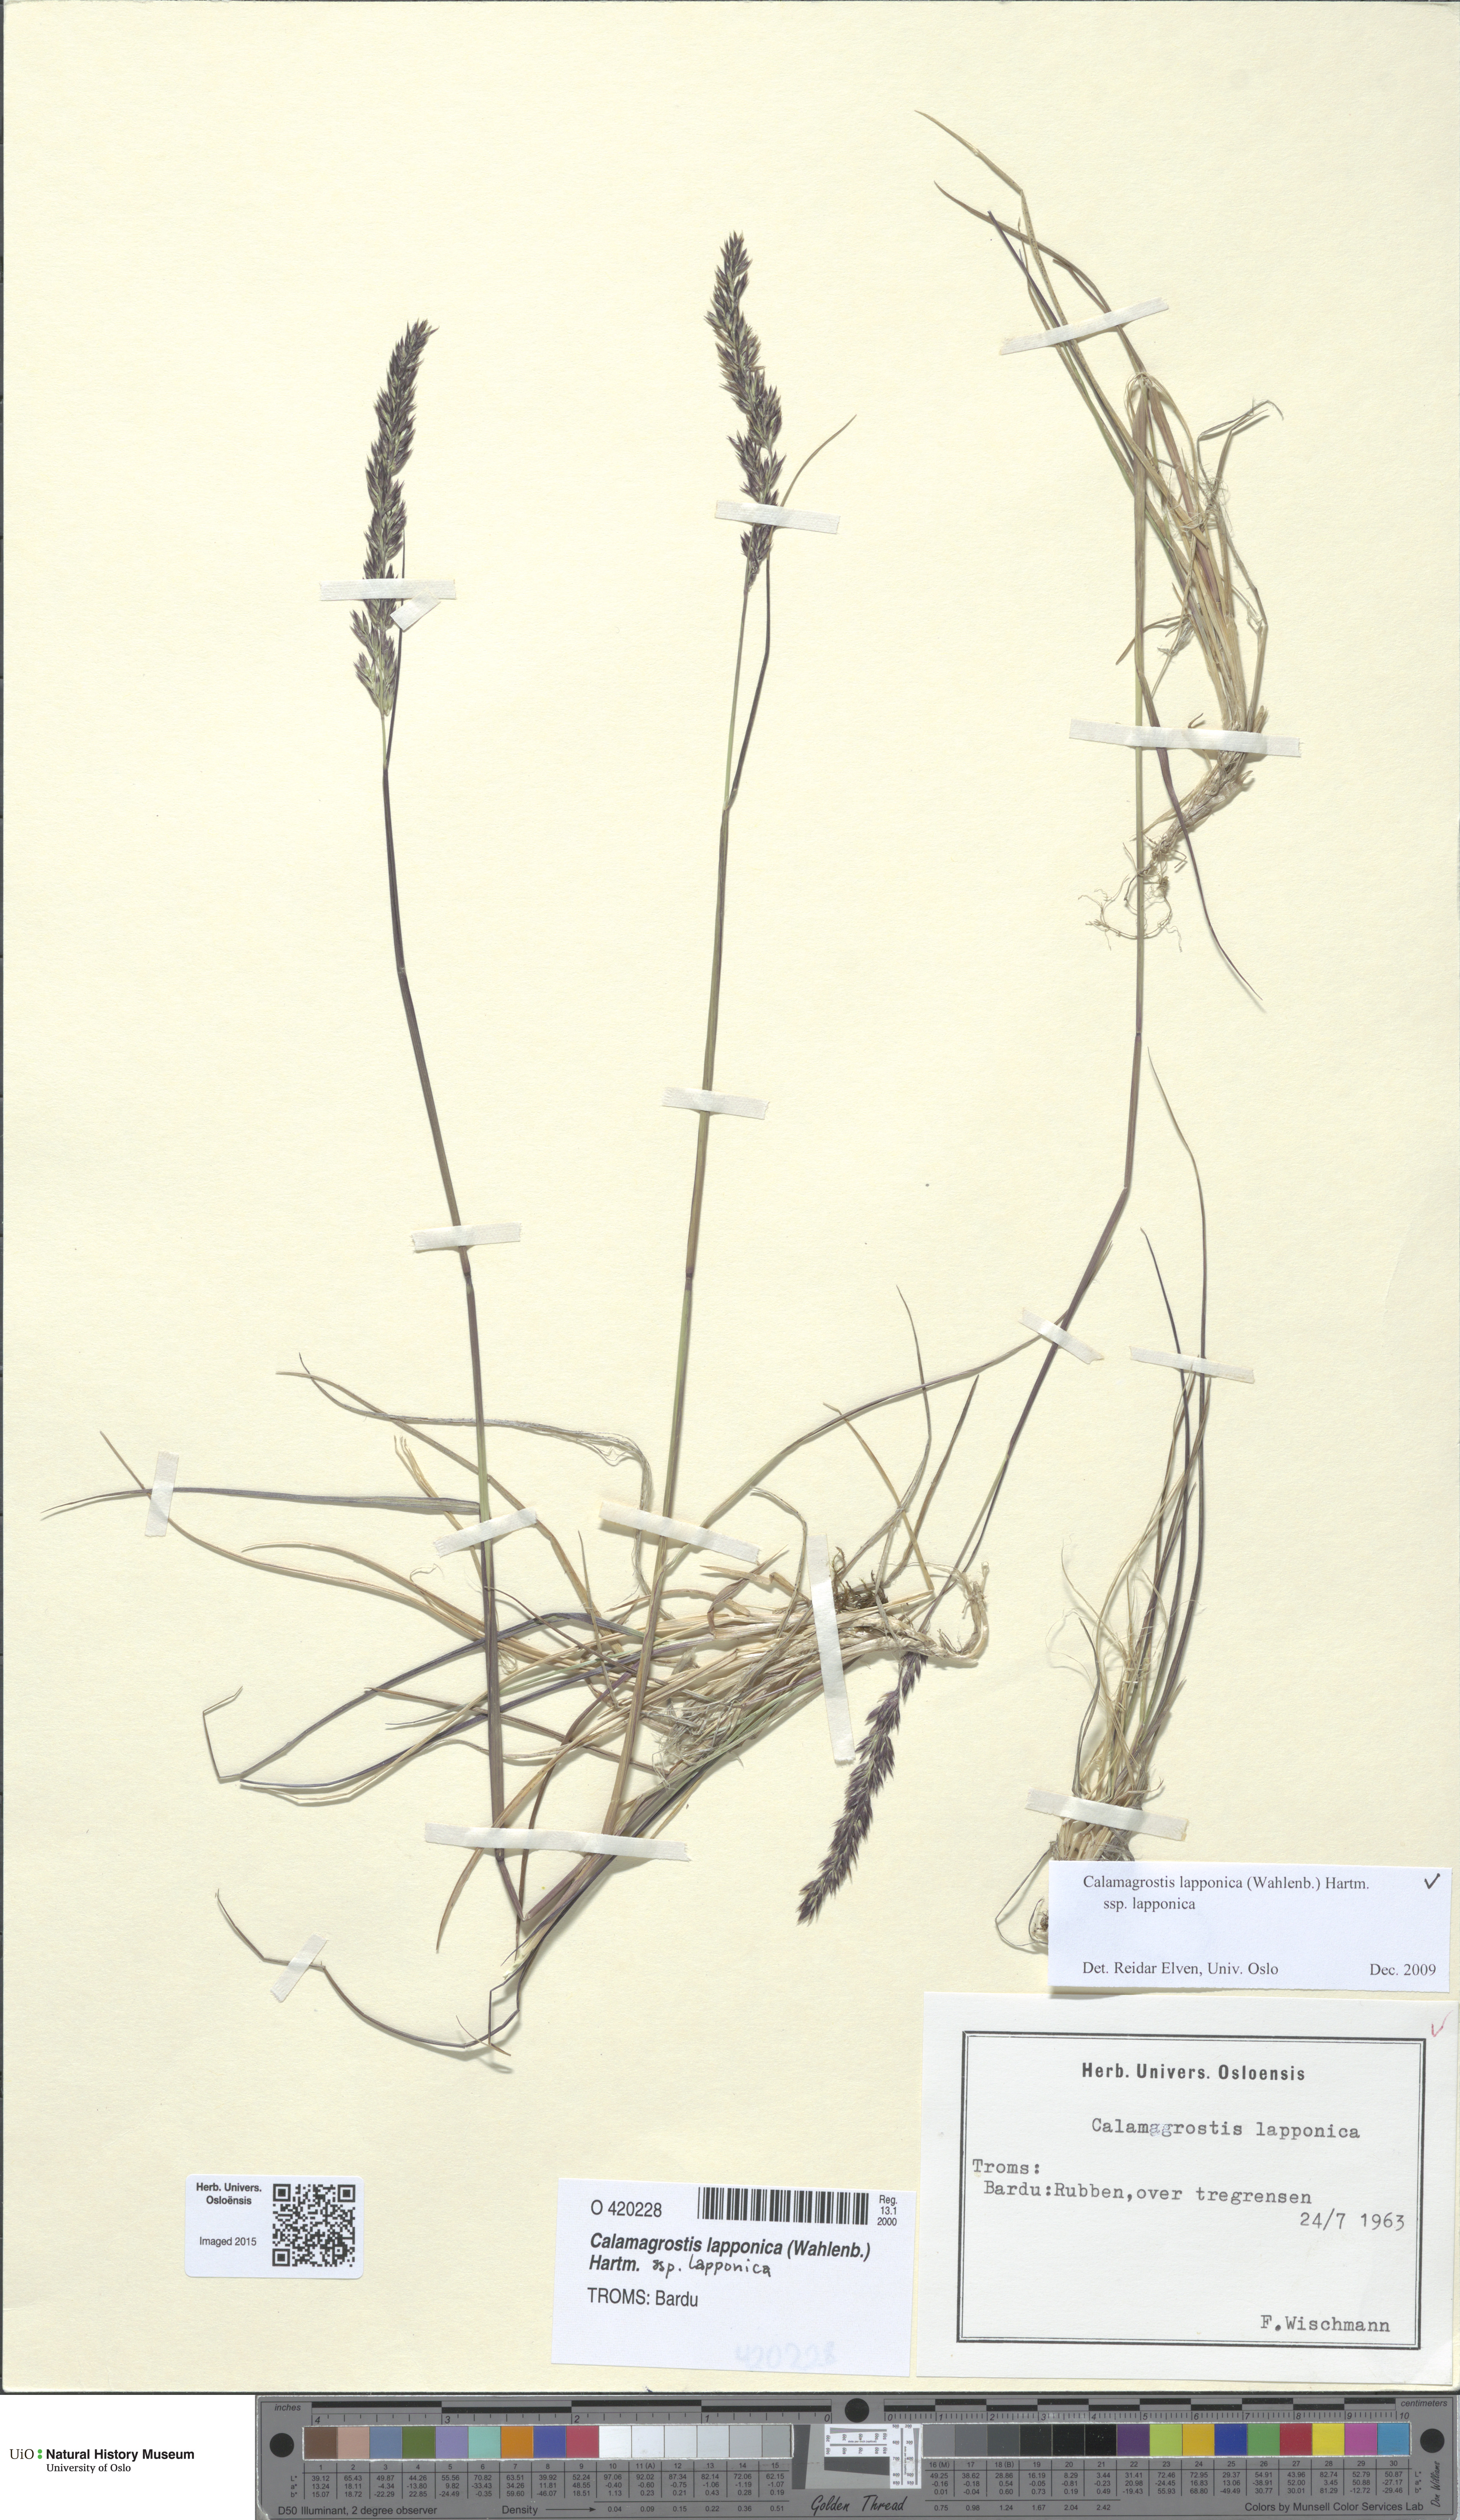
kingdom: Plantae
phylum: Tracheophyta
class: Liliopsida
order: Poales
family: Poaceae
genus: Calamagrostis
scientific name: Calamagrostis lapponica
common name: Lapland reedgrass
